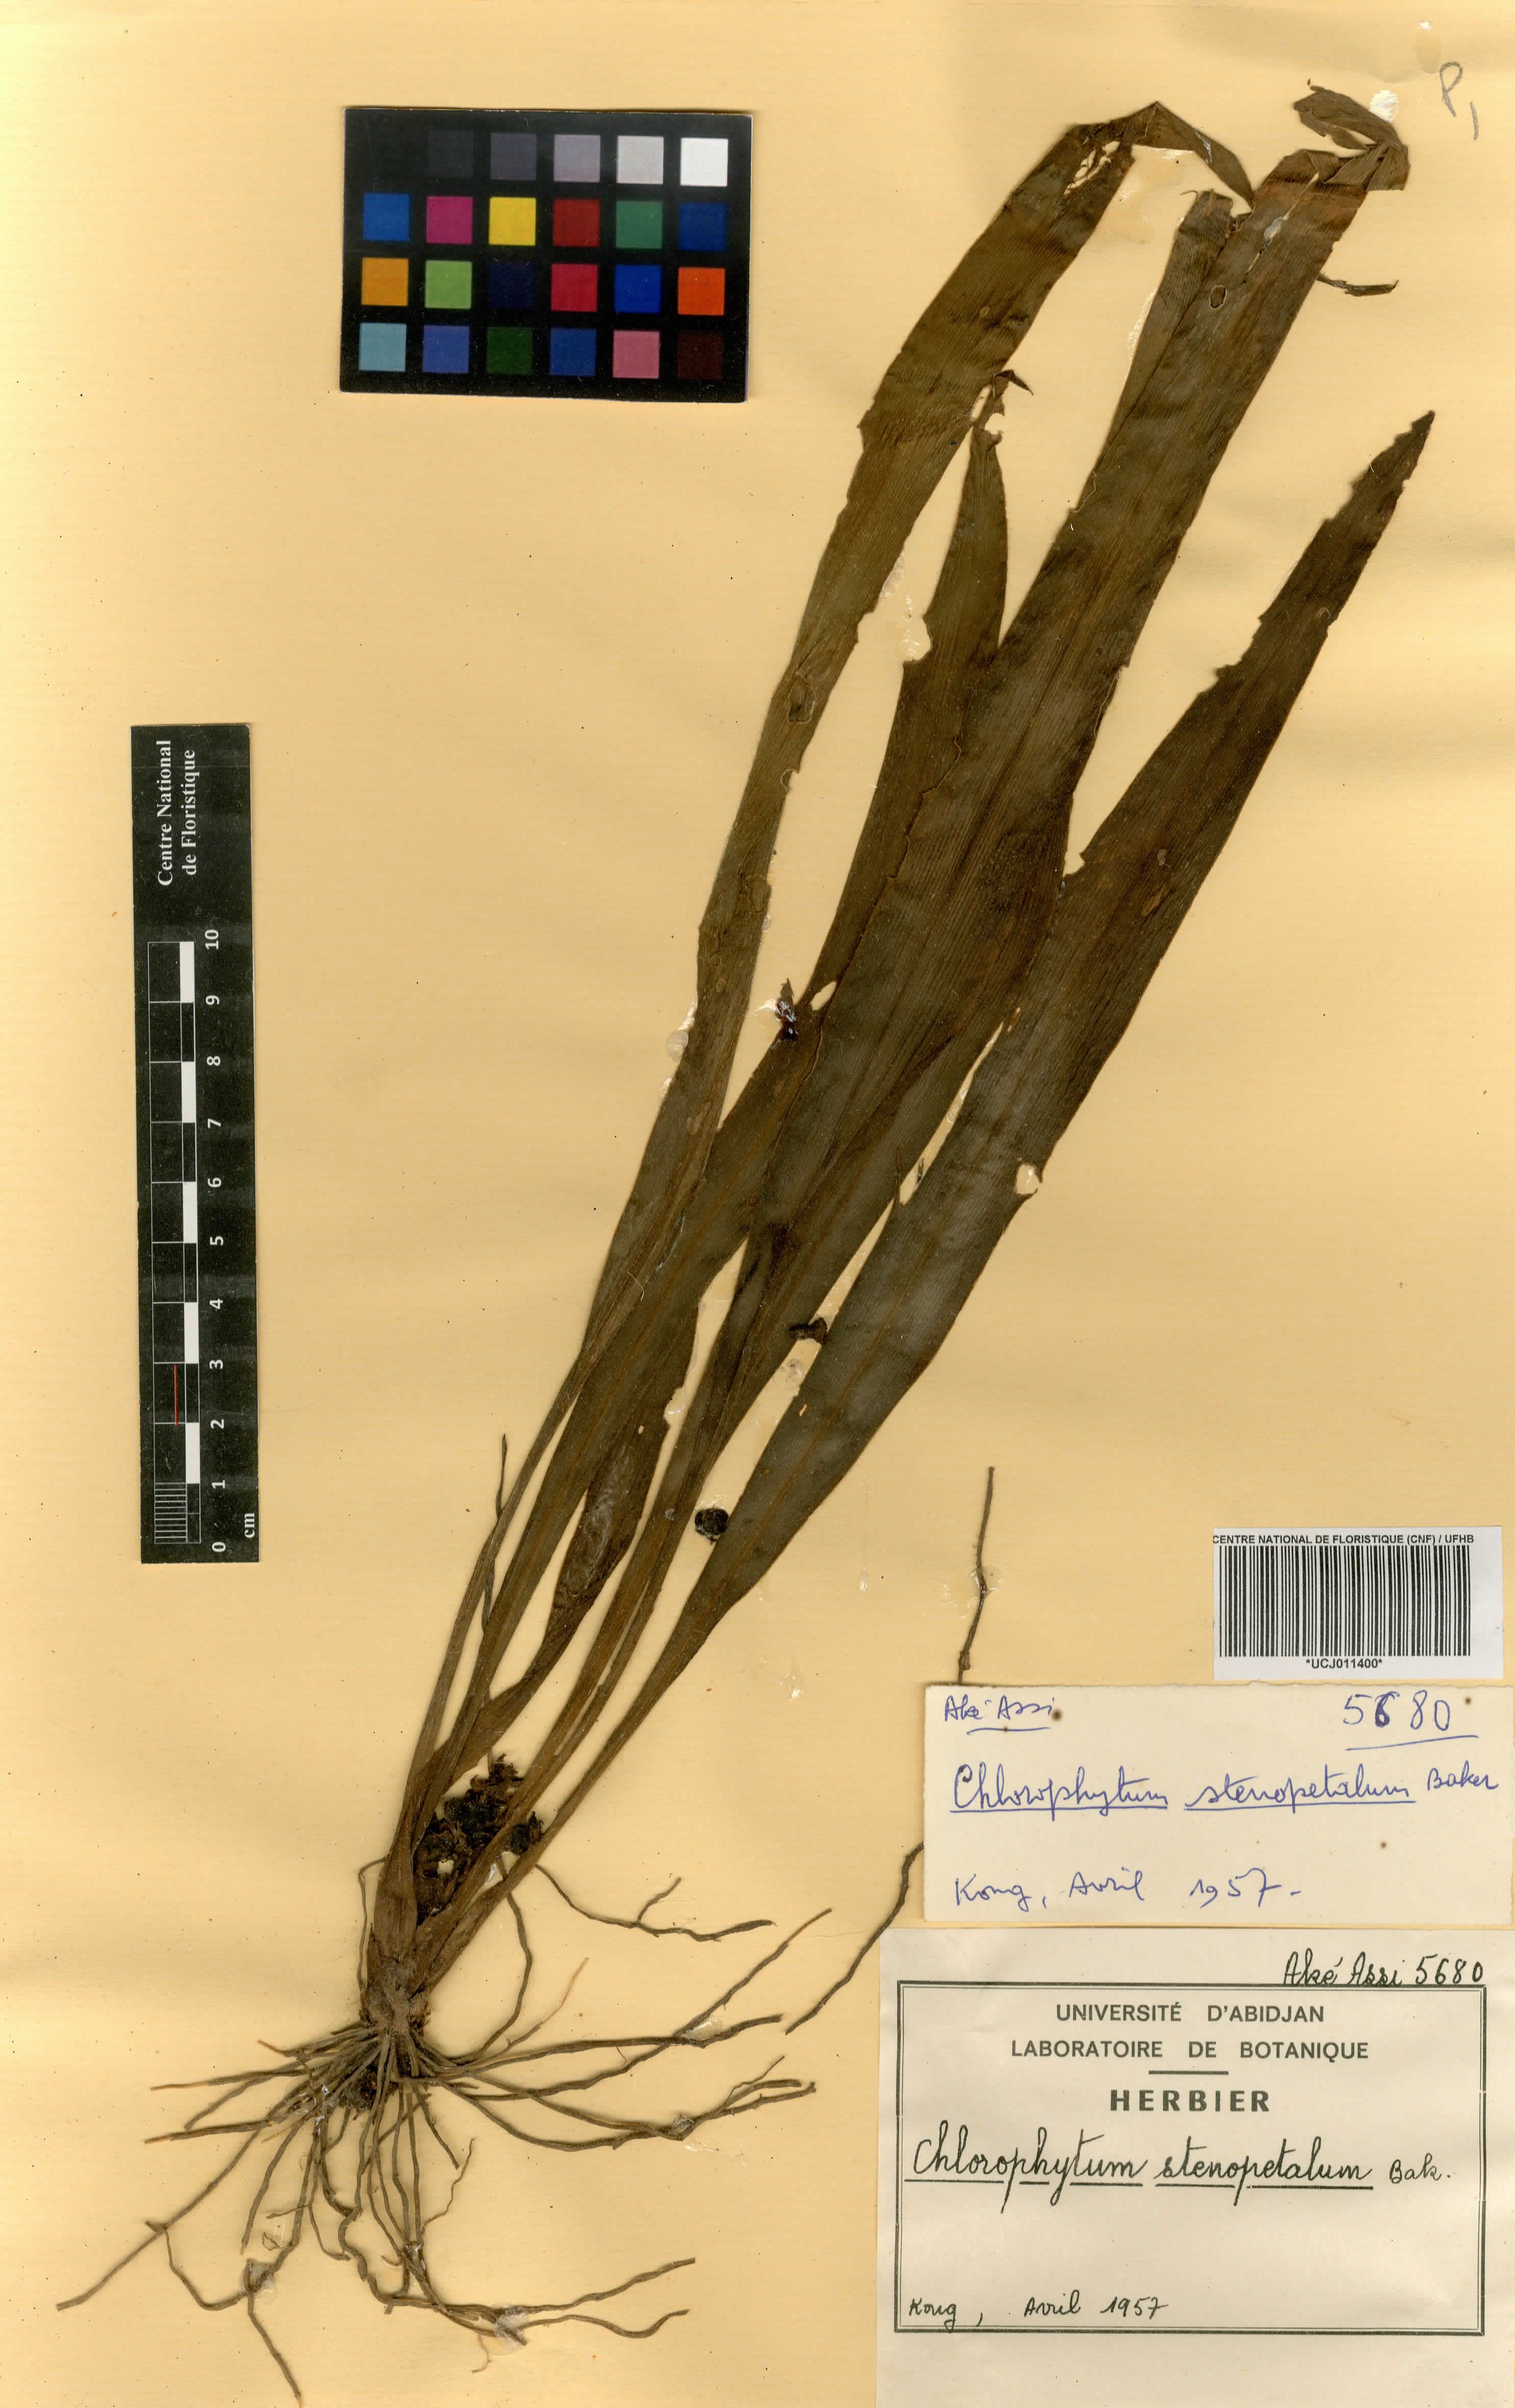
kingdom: Plantae
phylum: Tracheophyta
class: Liliopsida
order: Asparagales
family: Asparagaceae
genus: Chlorophytum
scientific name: Chlorophytum stenopetalum
